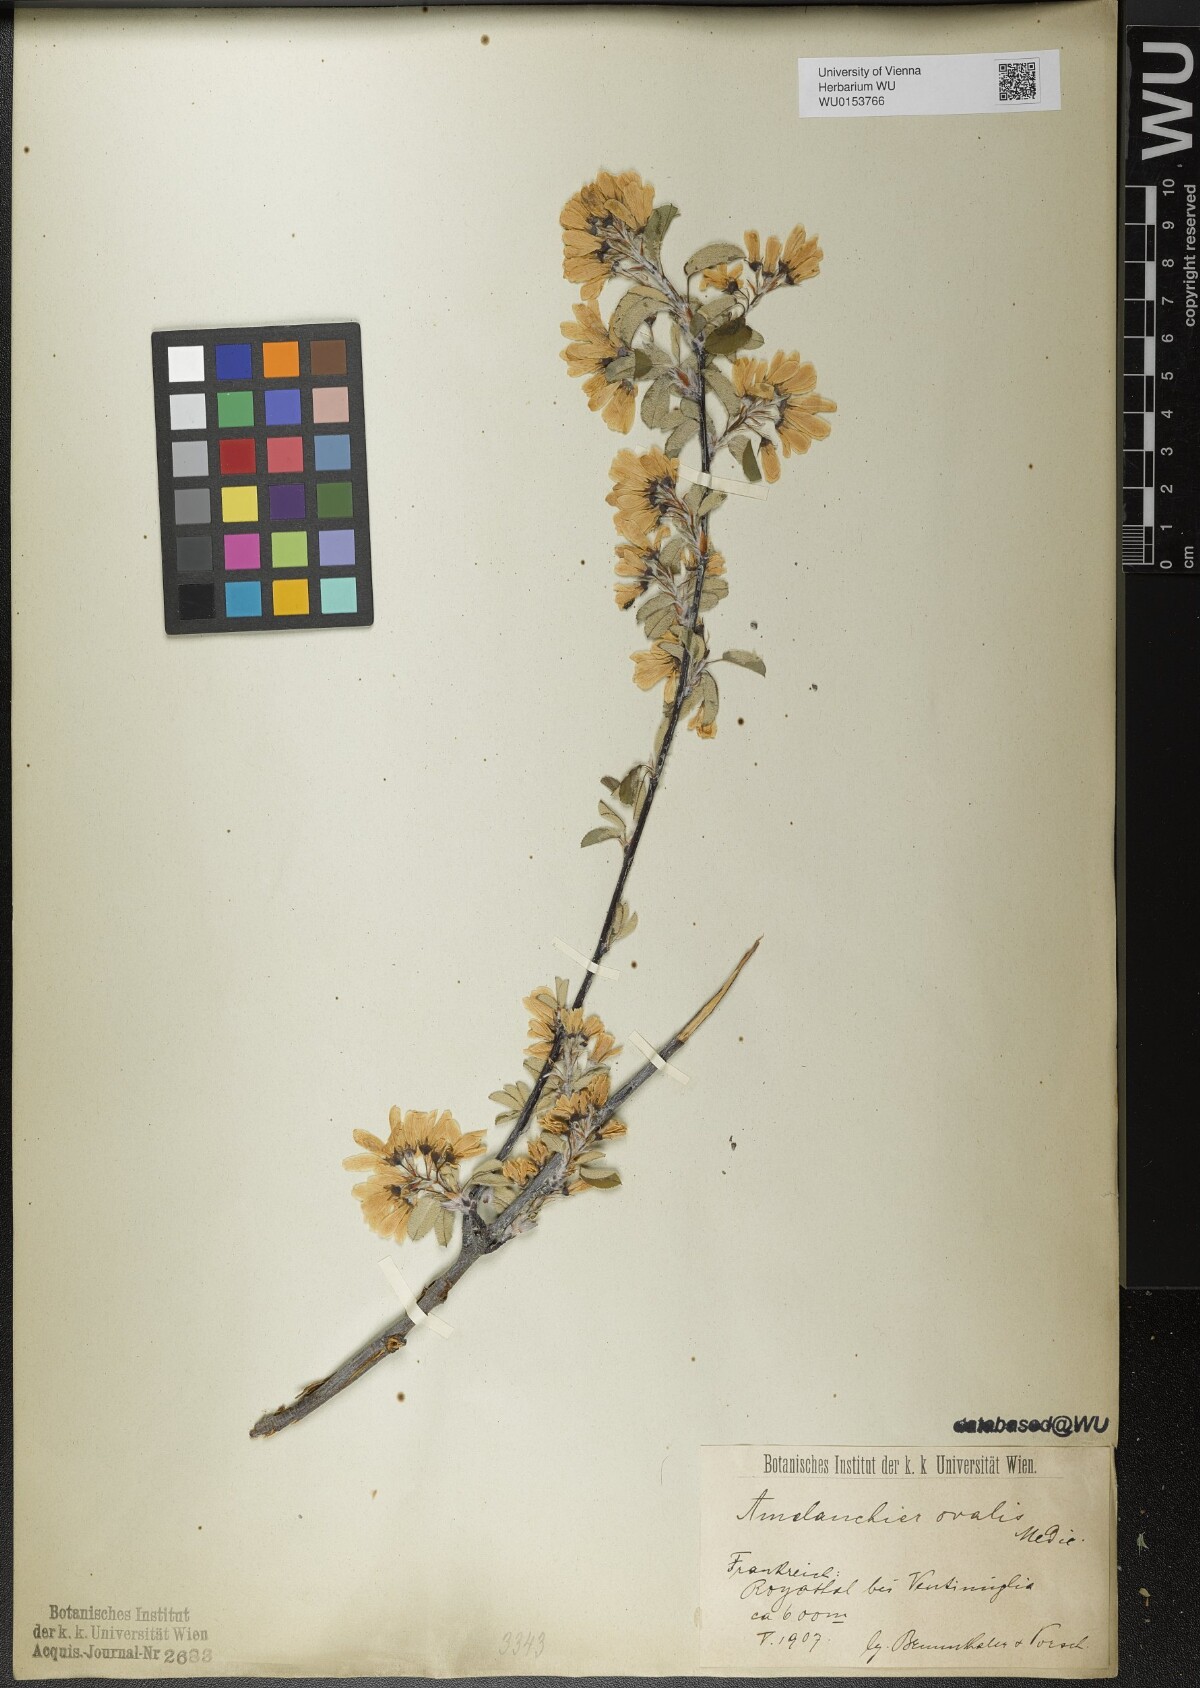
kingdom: Plantae
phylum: Tracheophyta
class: Magnoliopsida
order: Rosales
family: Rosaceae
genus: Amelanchier
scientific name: Amelanchier ovalis
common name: Serviceberry
